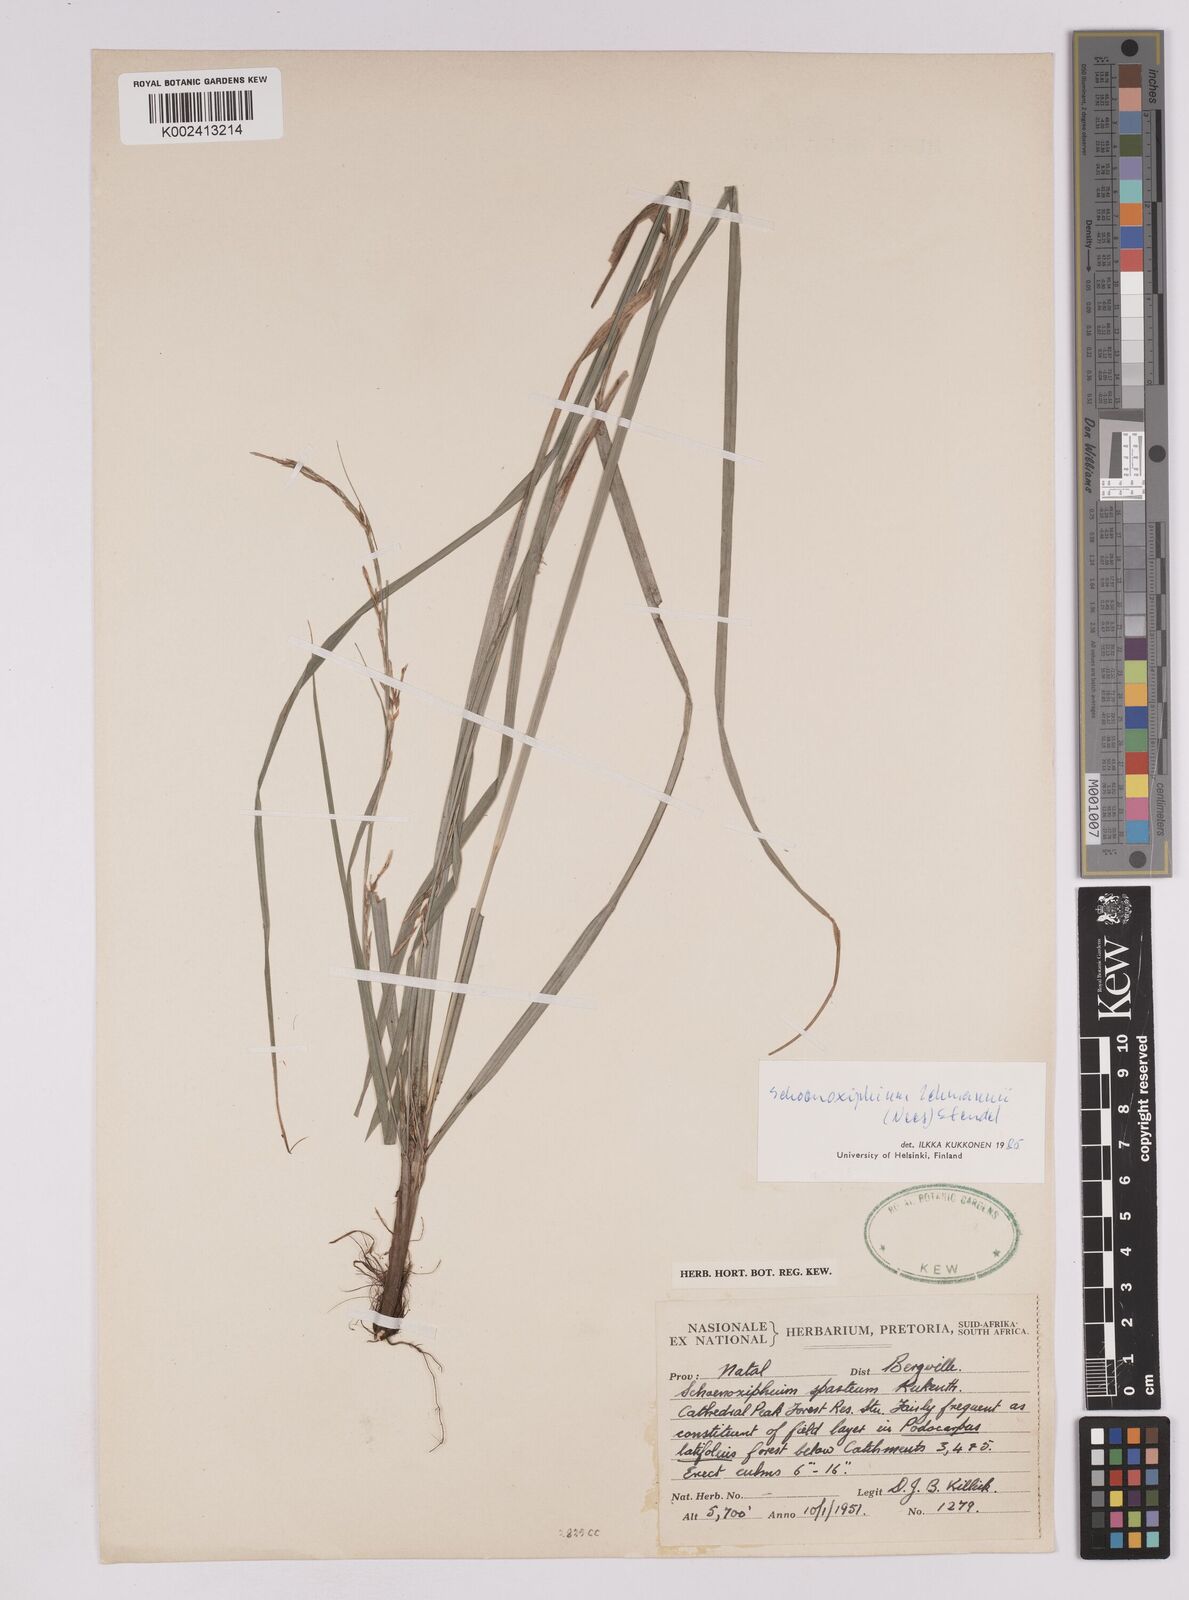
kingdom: Plantae
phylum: Tracheophyta
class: Liliopsida
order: Poales
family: Cyperaceae
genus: Carex
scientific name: Carex uhligii
